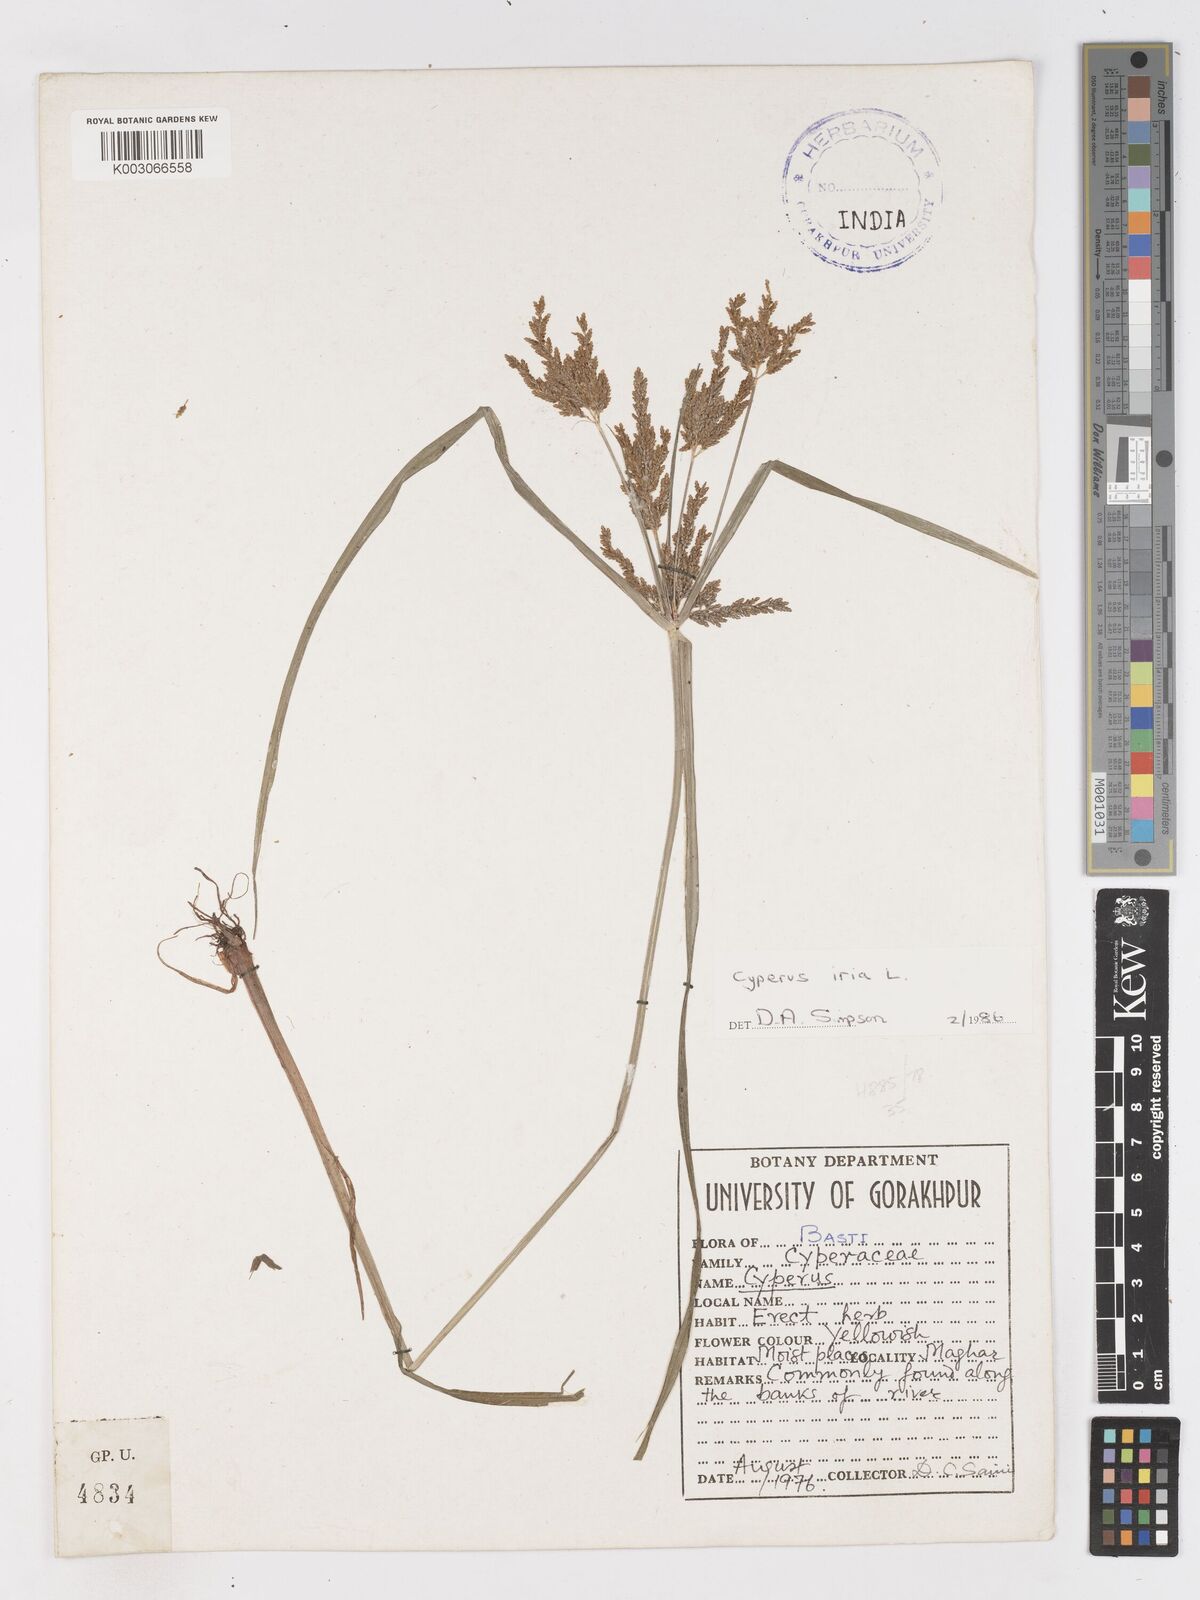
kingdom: Plantae
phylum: Tracheophyta
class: Liliopsida
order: Poales
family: Cyperaceae
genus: Cyperus
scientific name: Cyperus iria
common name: Ricefield flatsedge
